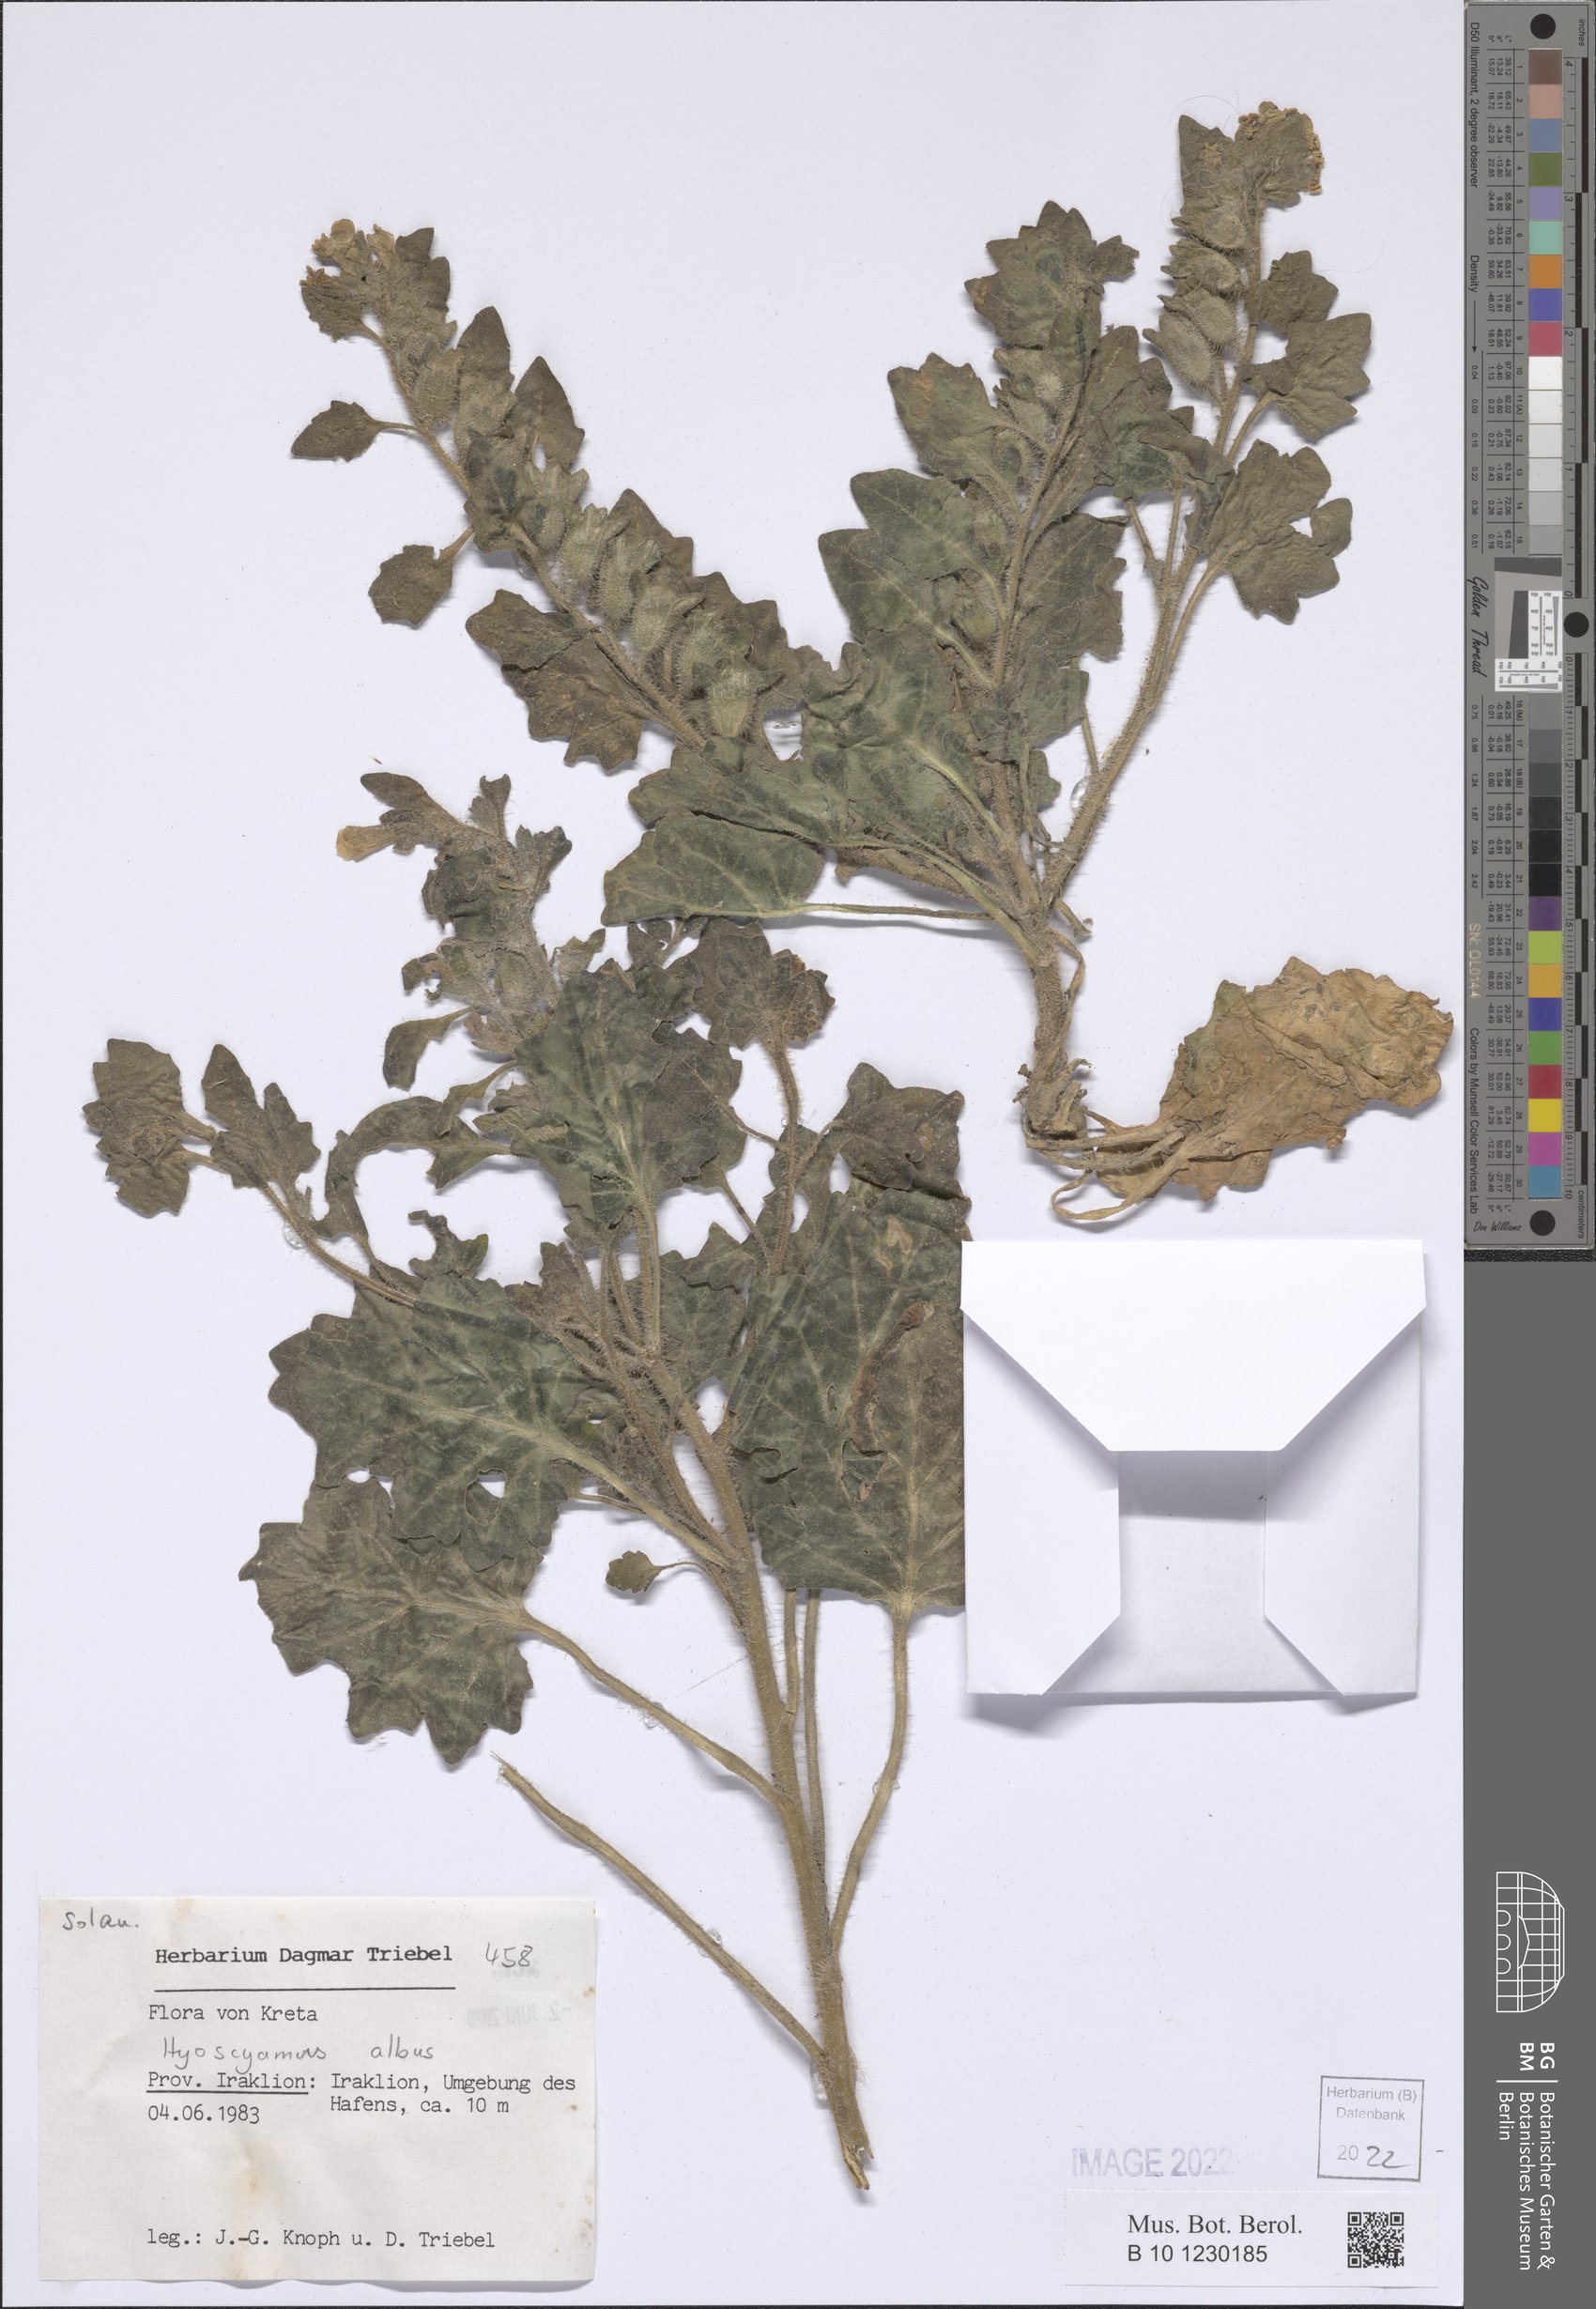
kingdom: Plantae
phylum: Tracheophyta
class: Magnoliopsida
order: Solanales
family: Solanaceae
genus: Hyoscyamus
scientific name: Hyoscyamus albus
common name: White henbane
